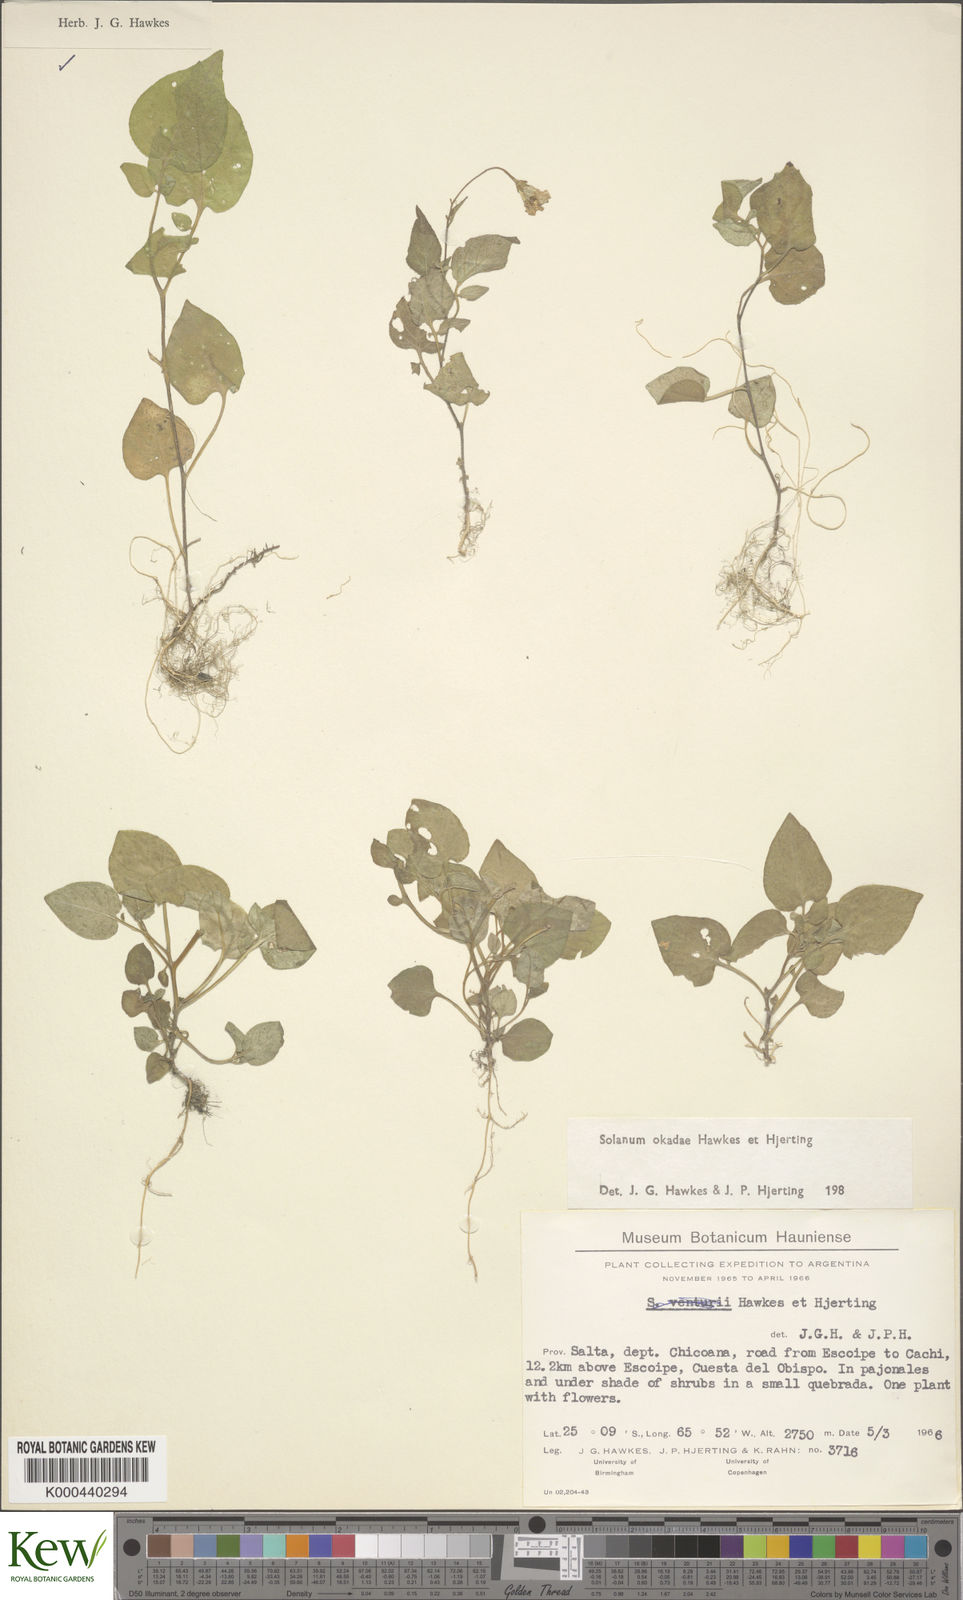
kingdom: Plantae
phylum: Tracheophyta
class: Magnoliopsida
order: Solanales
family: Solanaceae
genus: Solanum
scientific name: Solanum okadae
